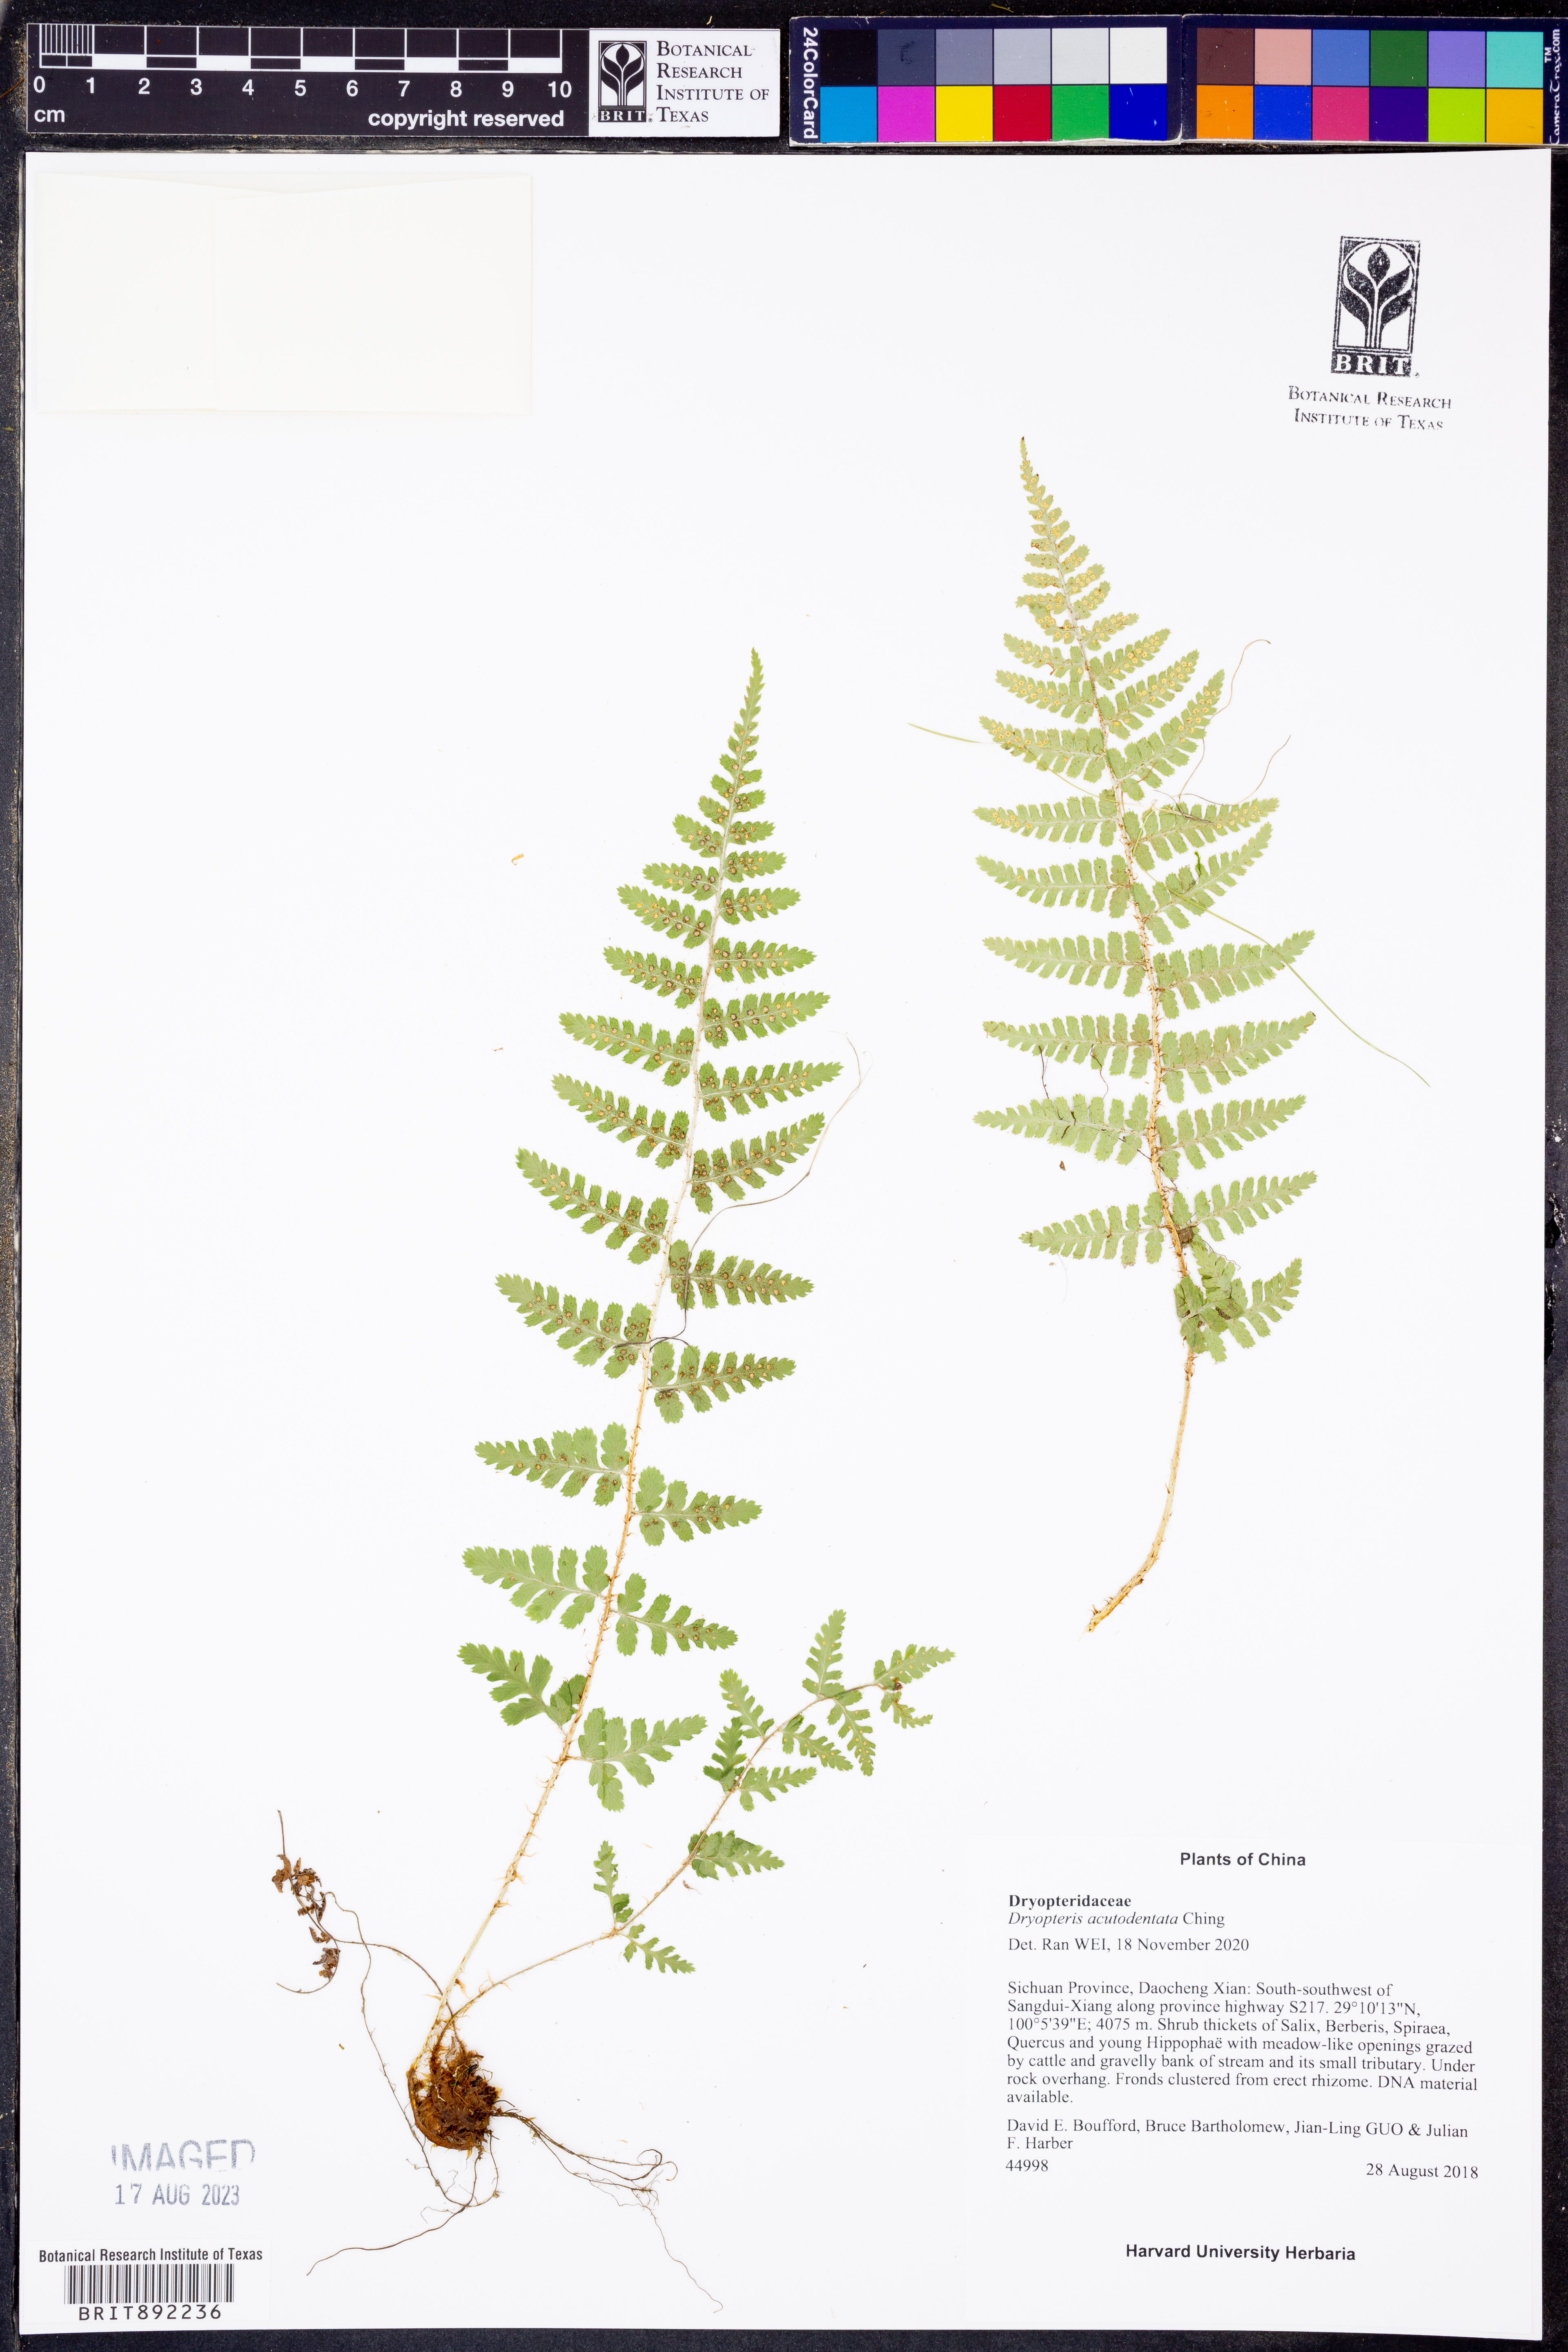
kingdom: Plantae
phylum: Tracheophyta
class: Polypodiopsida
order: Polypodiales
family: Dryopteridaceae
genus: Dryopteris
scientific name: Dryopteris acutodentata
